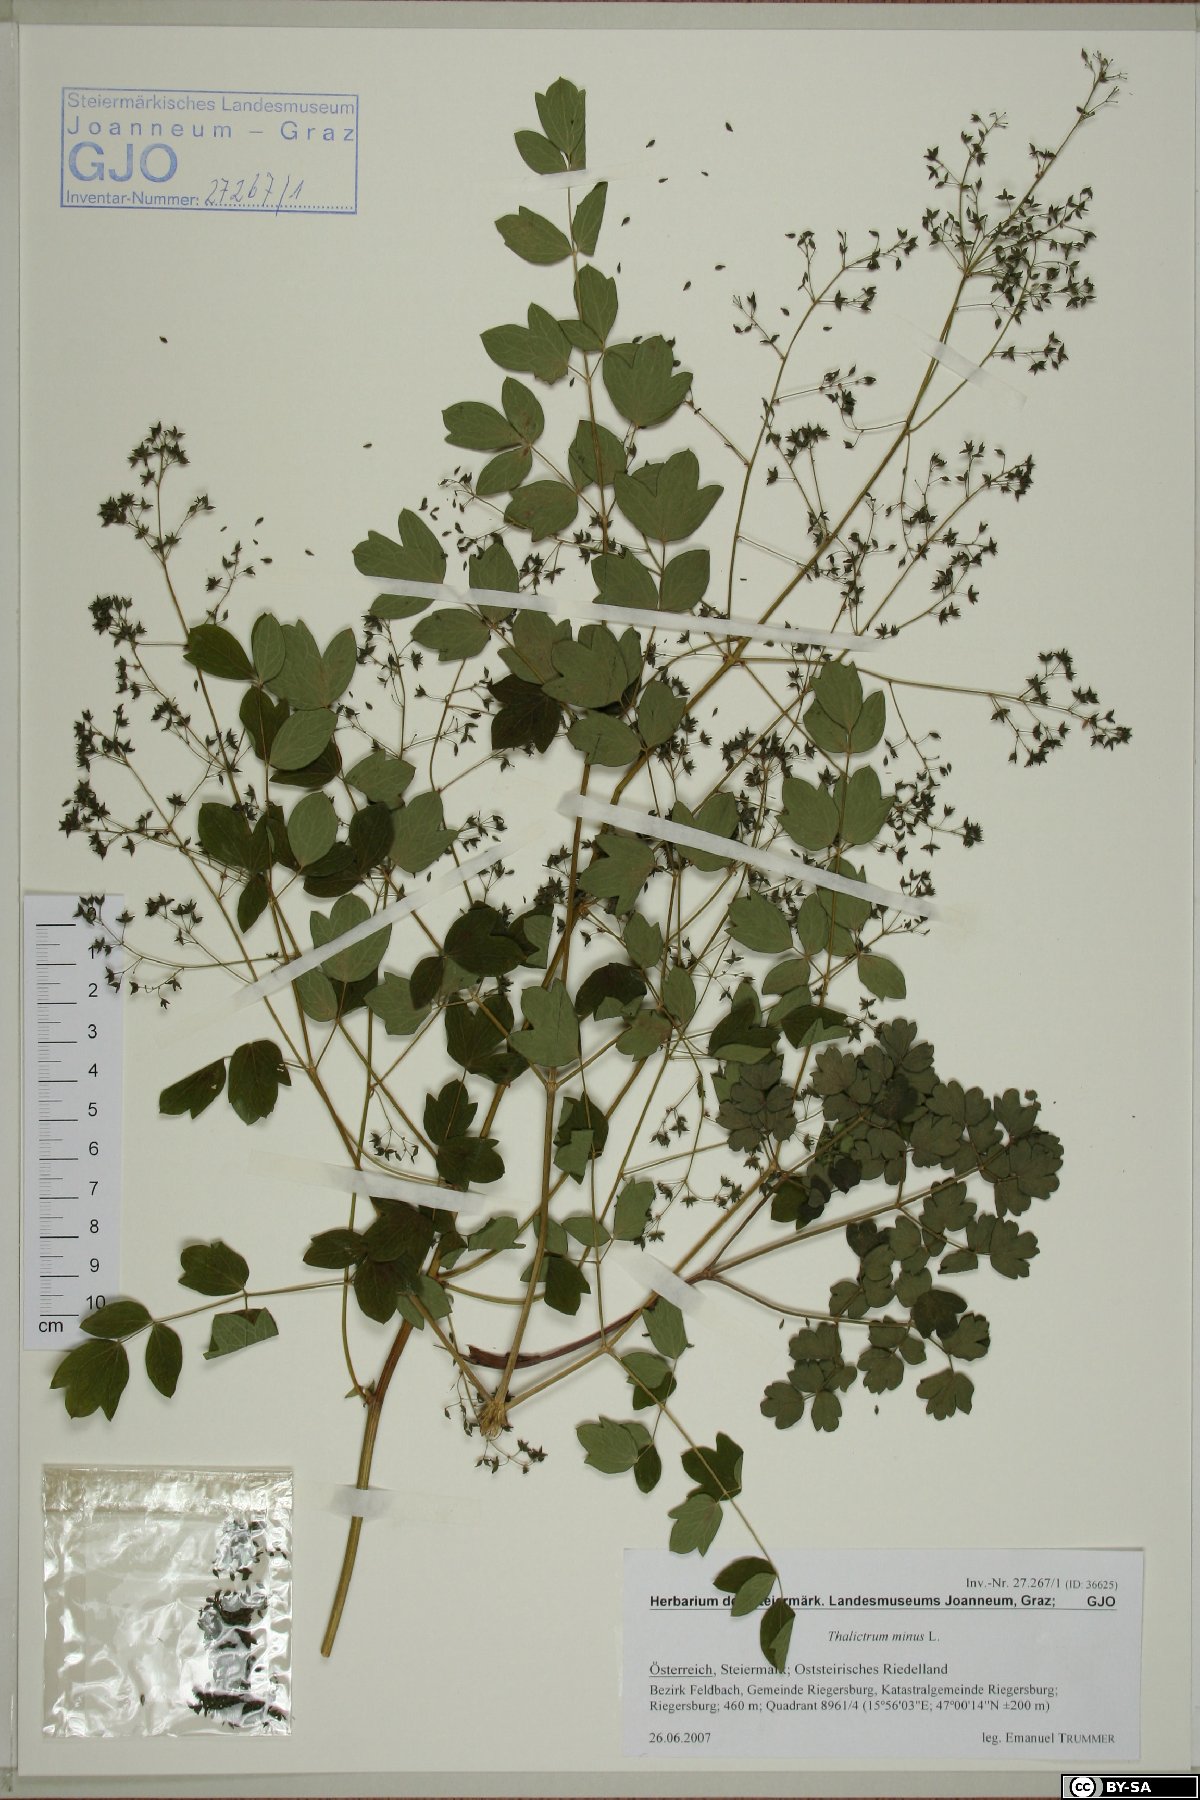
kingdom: Plantae
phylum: Tracheophyta
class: Magnoliopsida
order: Ranunculales
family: Ranunculaceae
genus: Thalictrum
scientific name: Thalictrum minus
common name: Lesser meadow-rue
